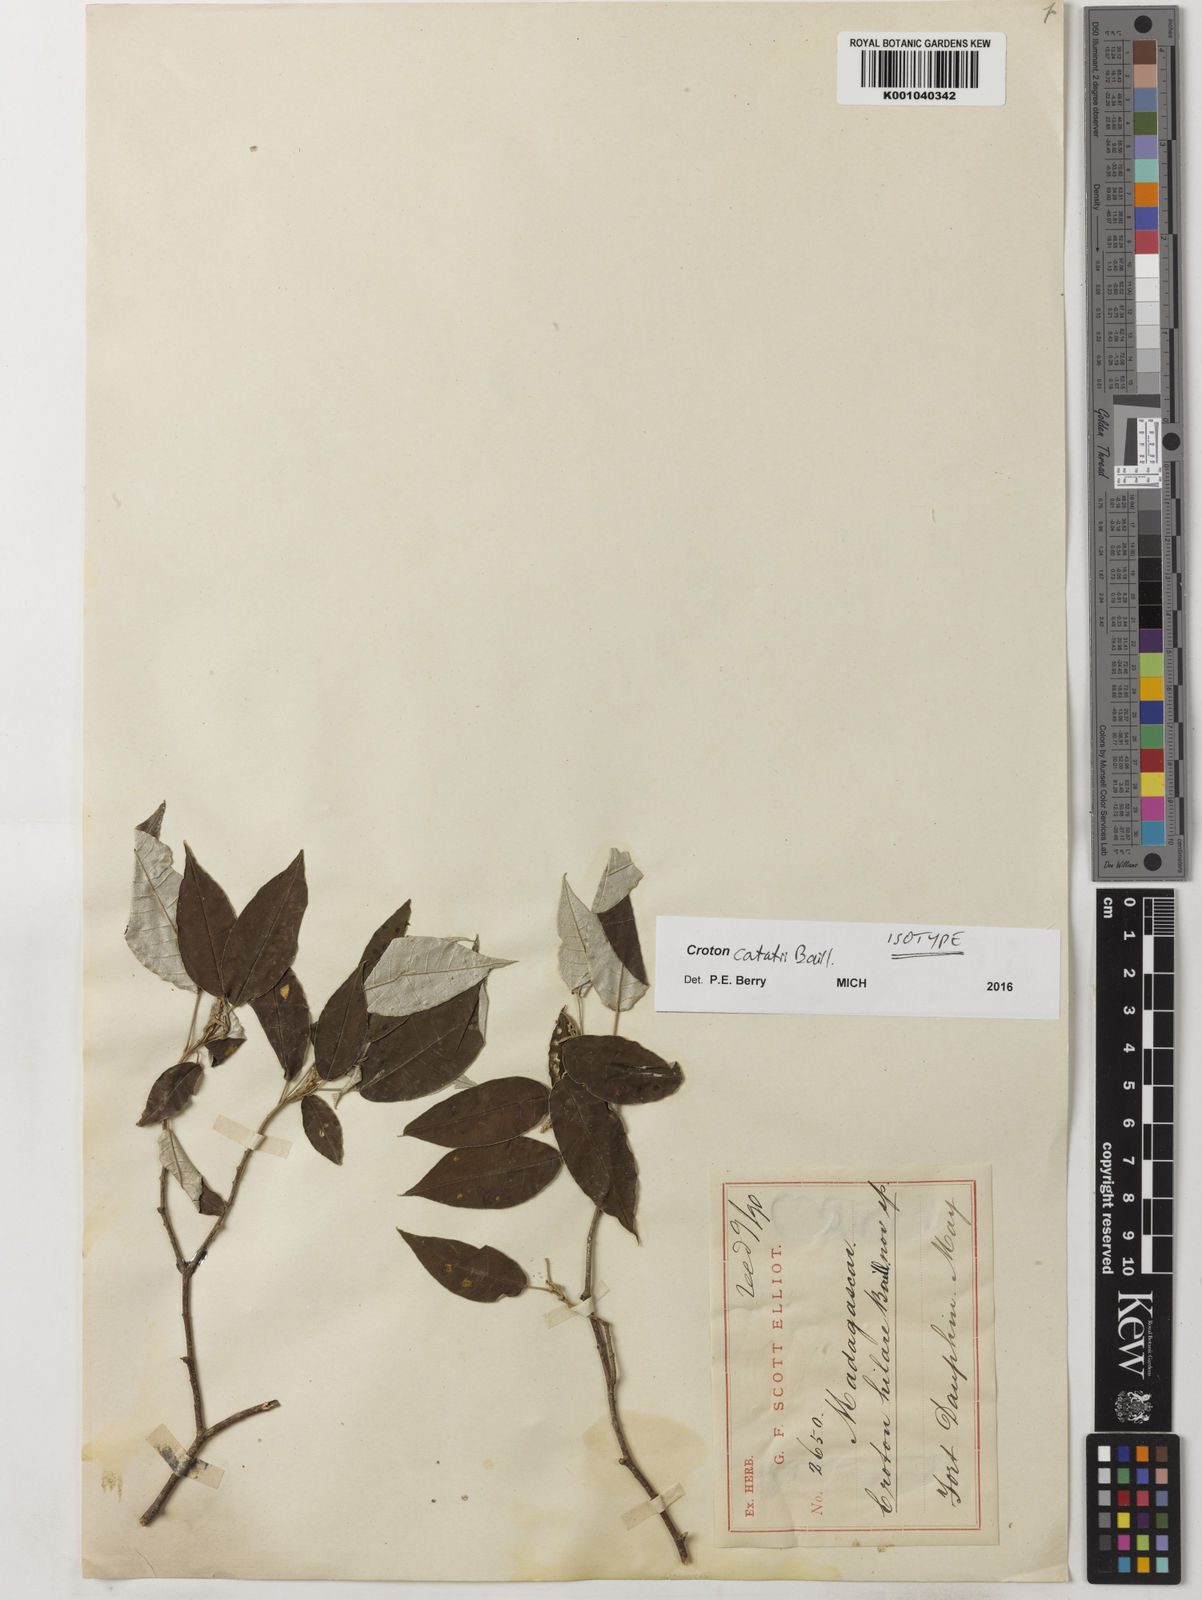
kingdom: Plantae
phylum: Tracheophyta
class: Magnoliopsida
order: Malpighiales
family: Euphorbiaceae
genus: Croton
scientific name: Croton catatii
